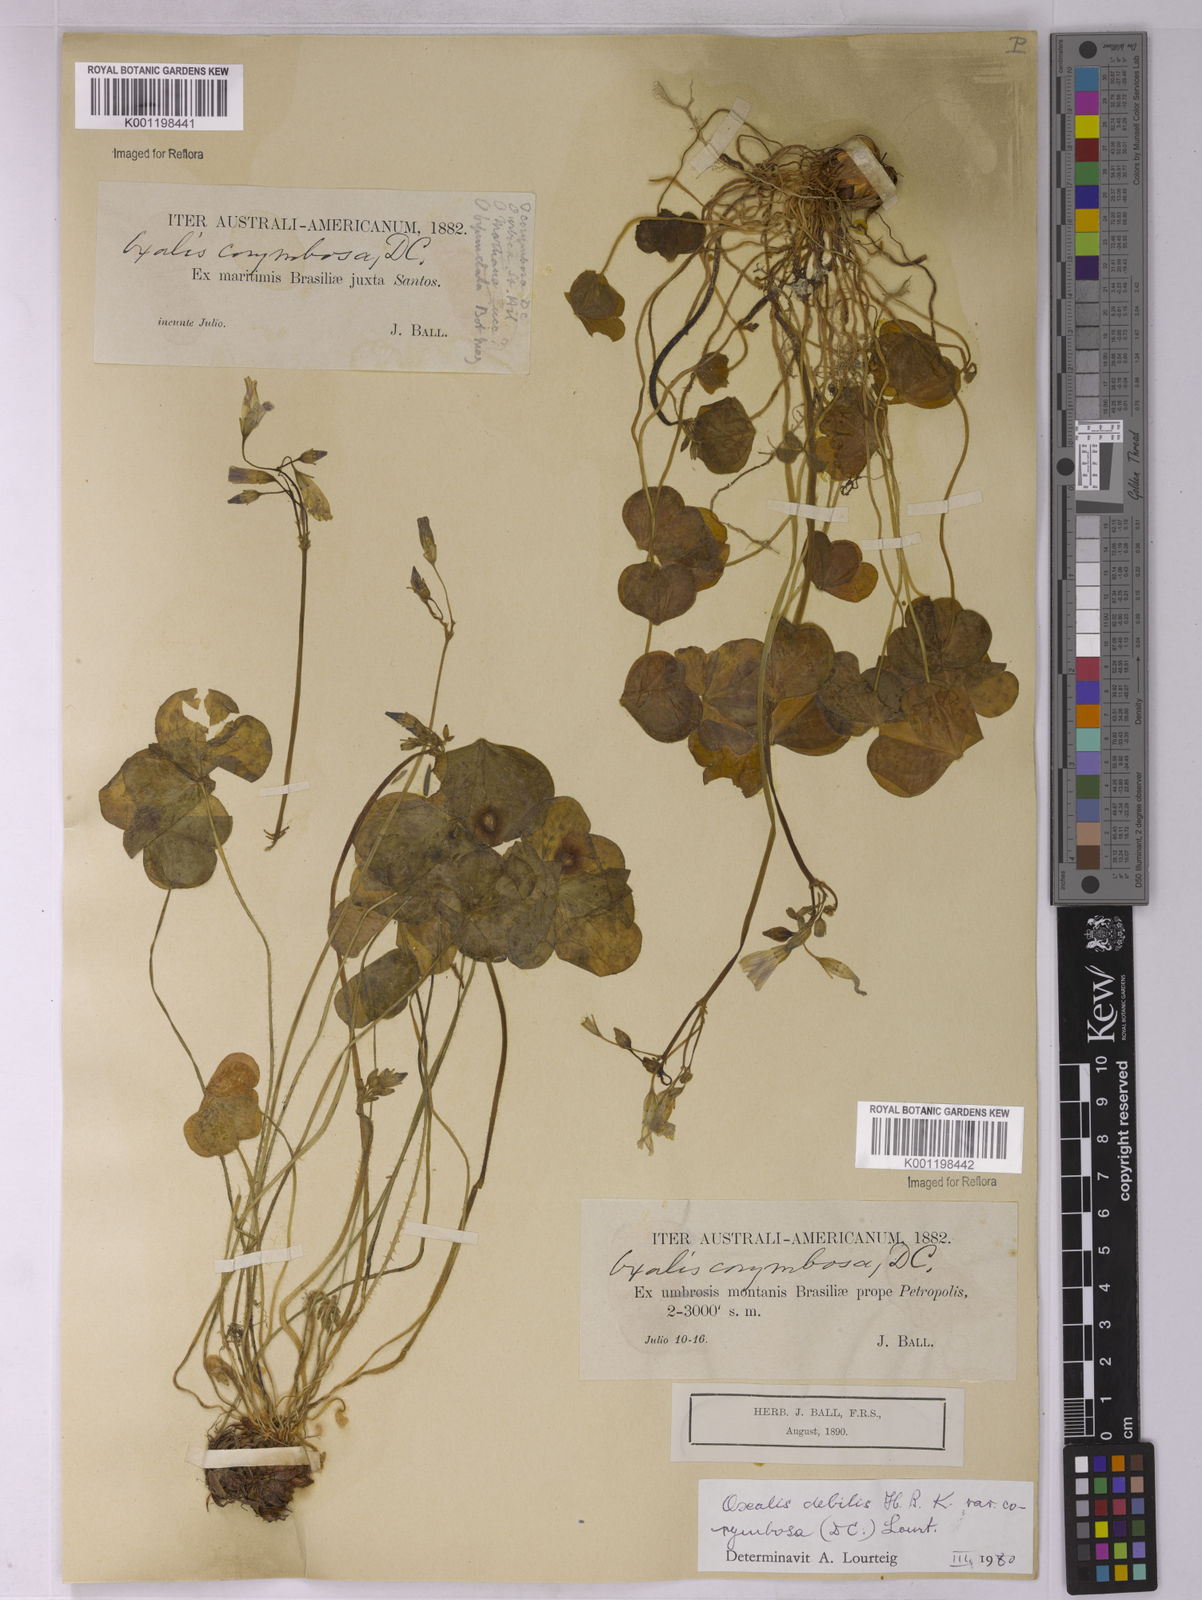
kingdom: Plantae
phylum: Tracheophyta
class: Magnoliopsida
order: Oxalidales
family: Oxalidaceae
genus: Oxalis
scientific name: Oxalis debilis
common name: Large-flowered pink-sorrel
